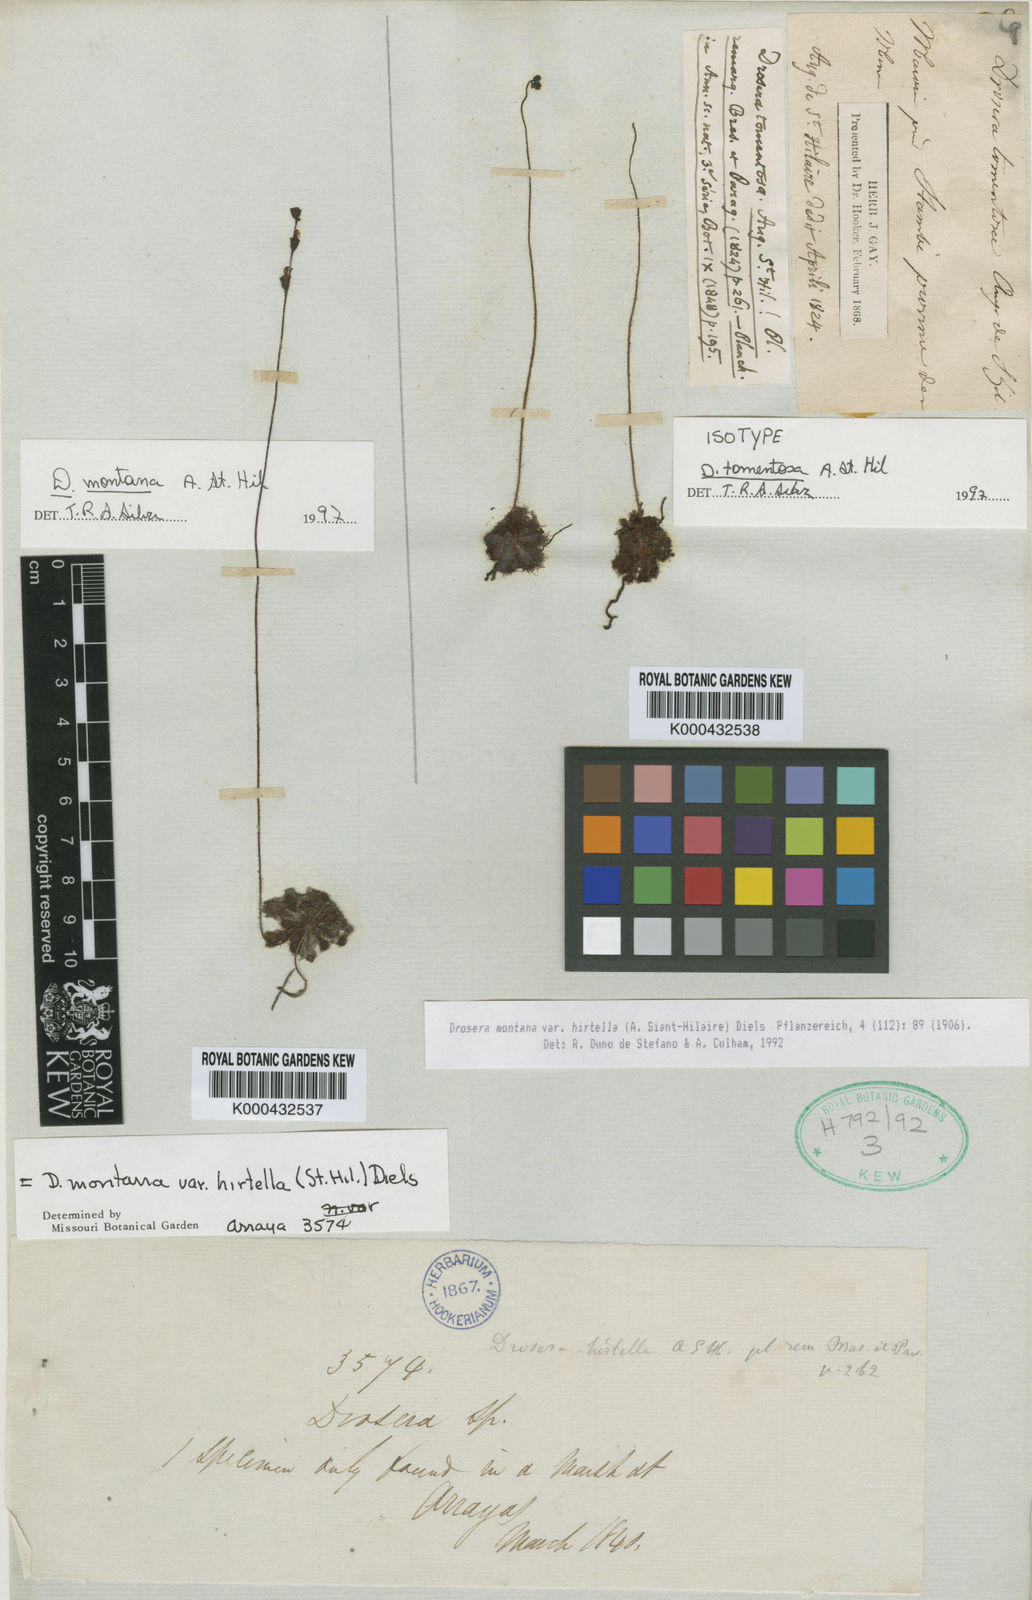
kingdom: Plantae
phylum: Tracheophyta
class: Magnoliopsida
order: Caryophyllales
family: Droseraceae
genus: Drosera
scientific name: Drosera montana
